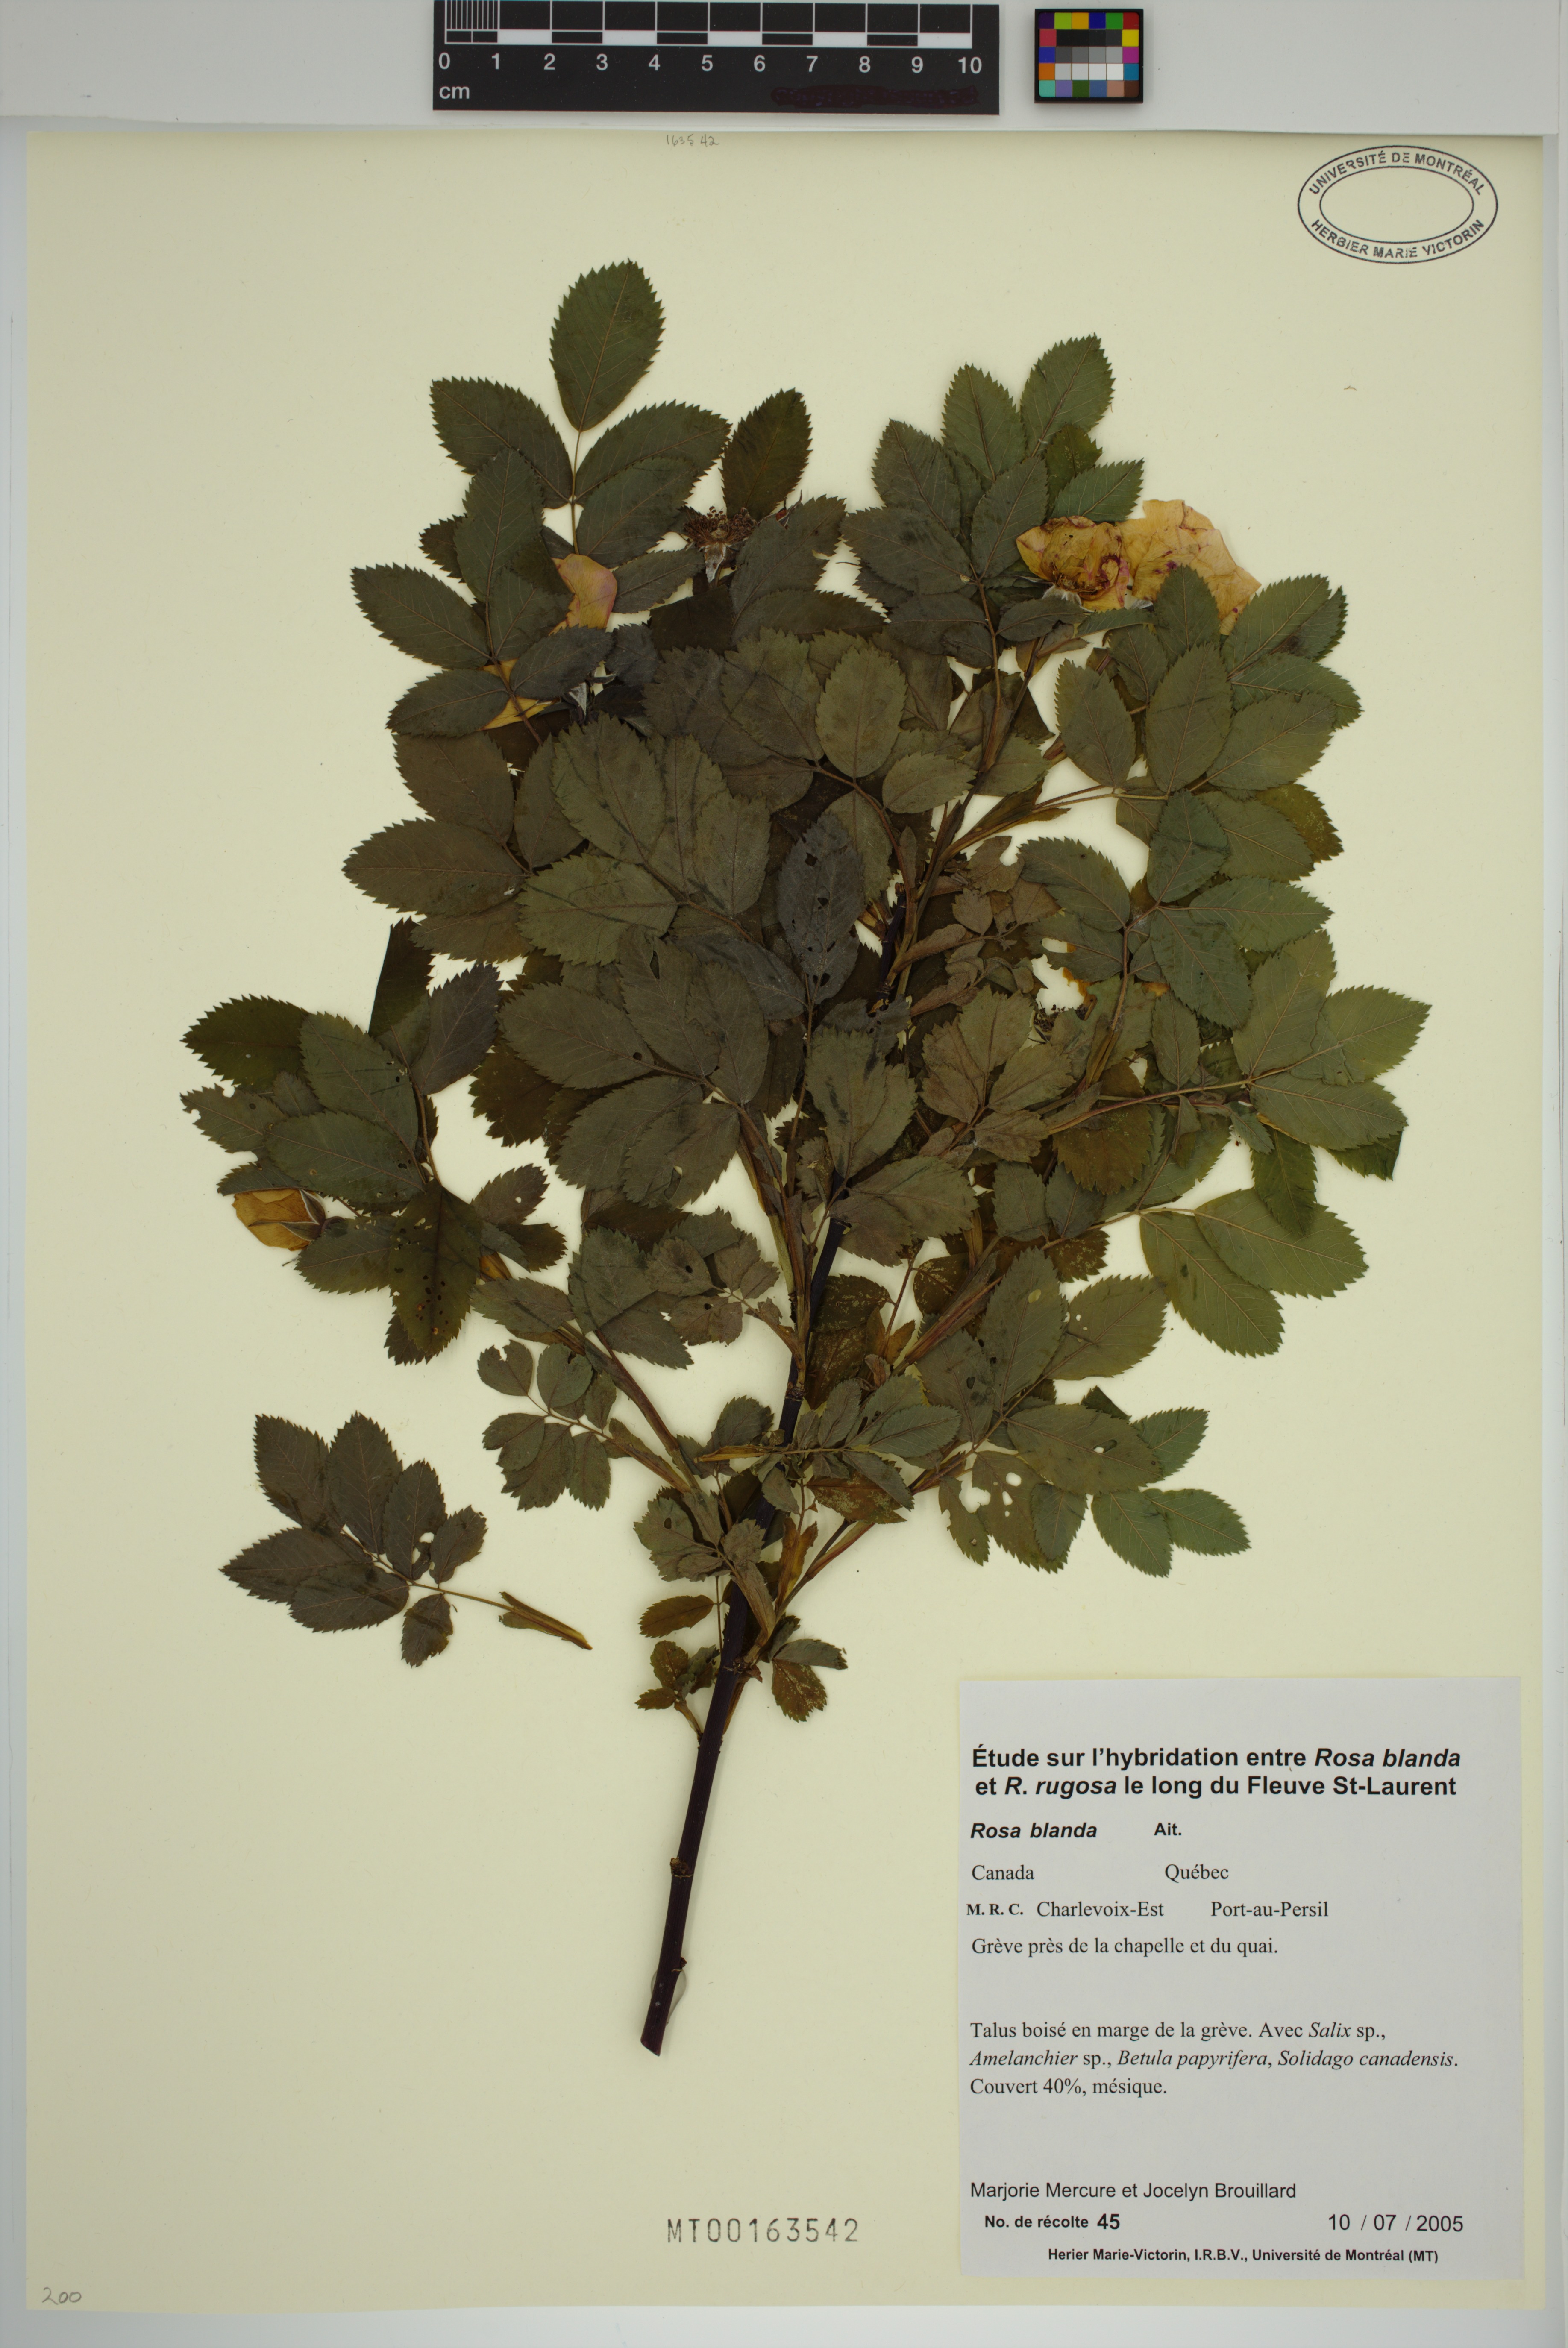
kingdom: Plantae
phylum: Tracheophyta
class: Magnoliopsida
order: Rosales
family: Rosaceae
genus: Rosa
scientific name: Rosa blanda
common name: Smooth rose
